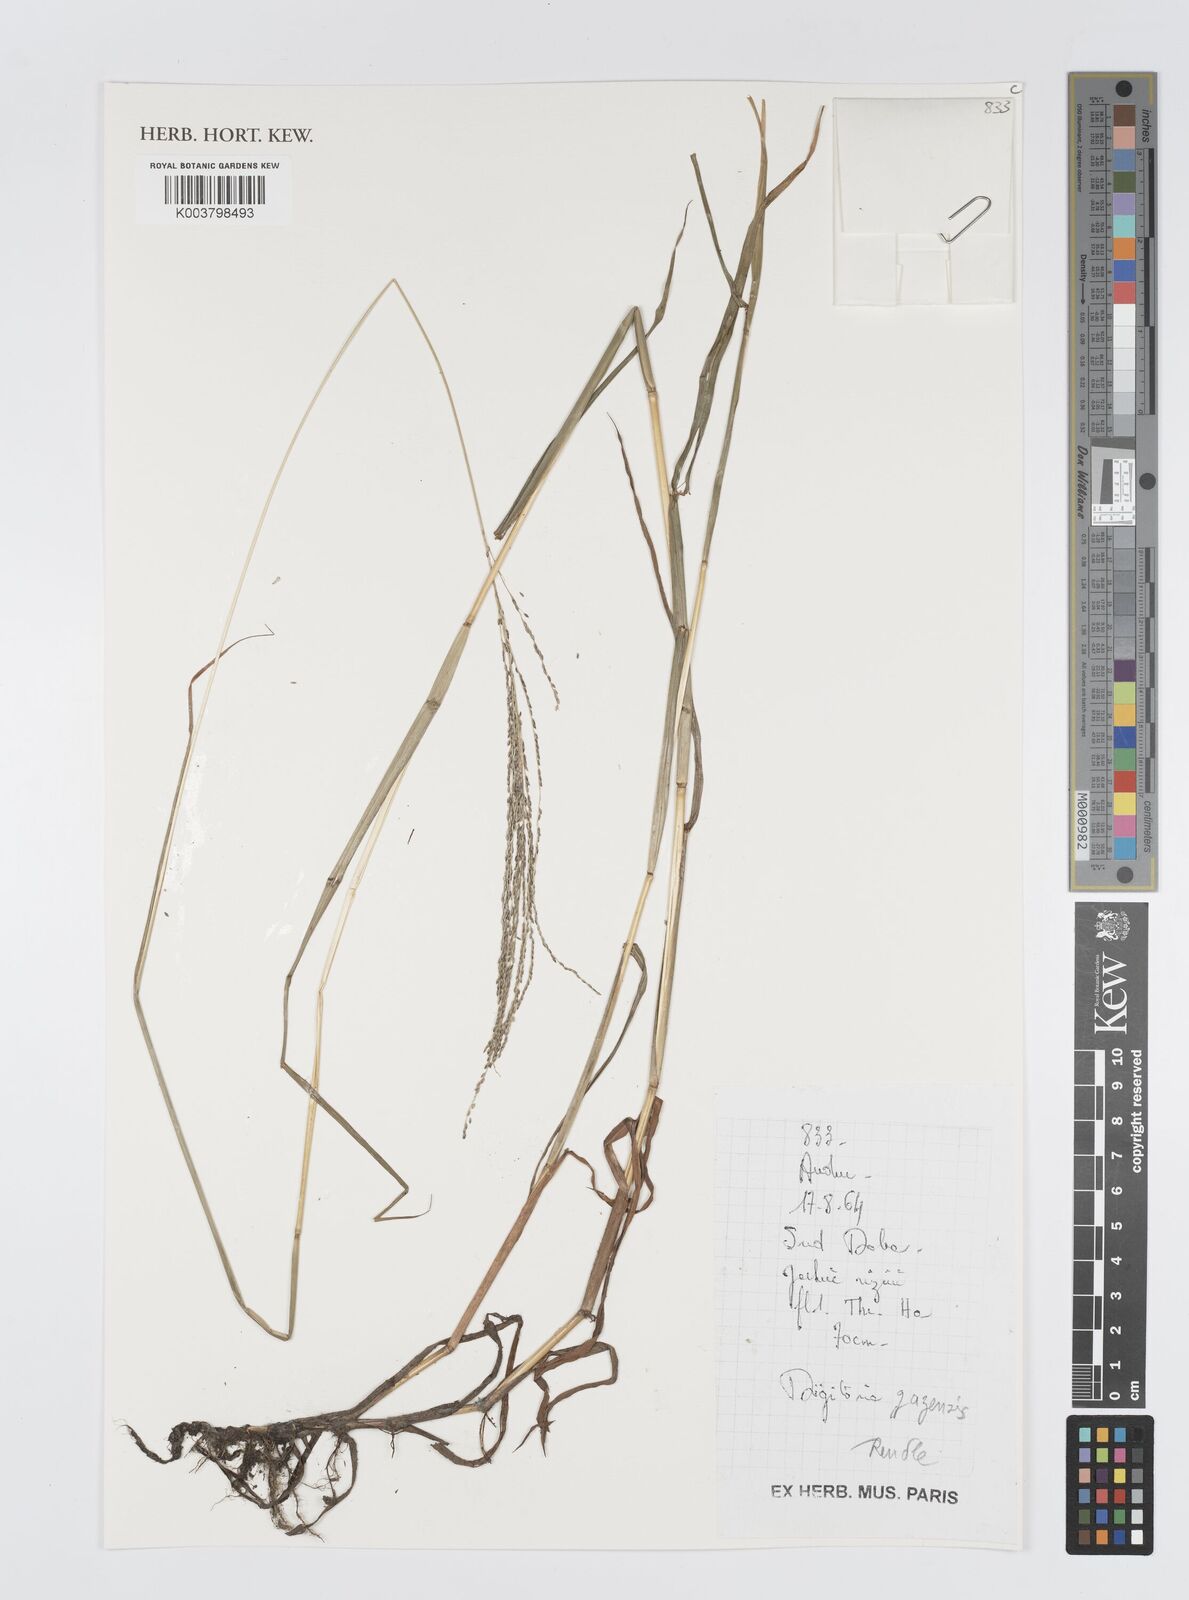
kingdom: Plantae
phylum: Tracheophyta
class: Liliopsida
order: Poales
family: Poaceae
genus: Digitaria
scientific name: Digitaria gazensis
